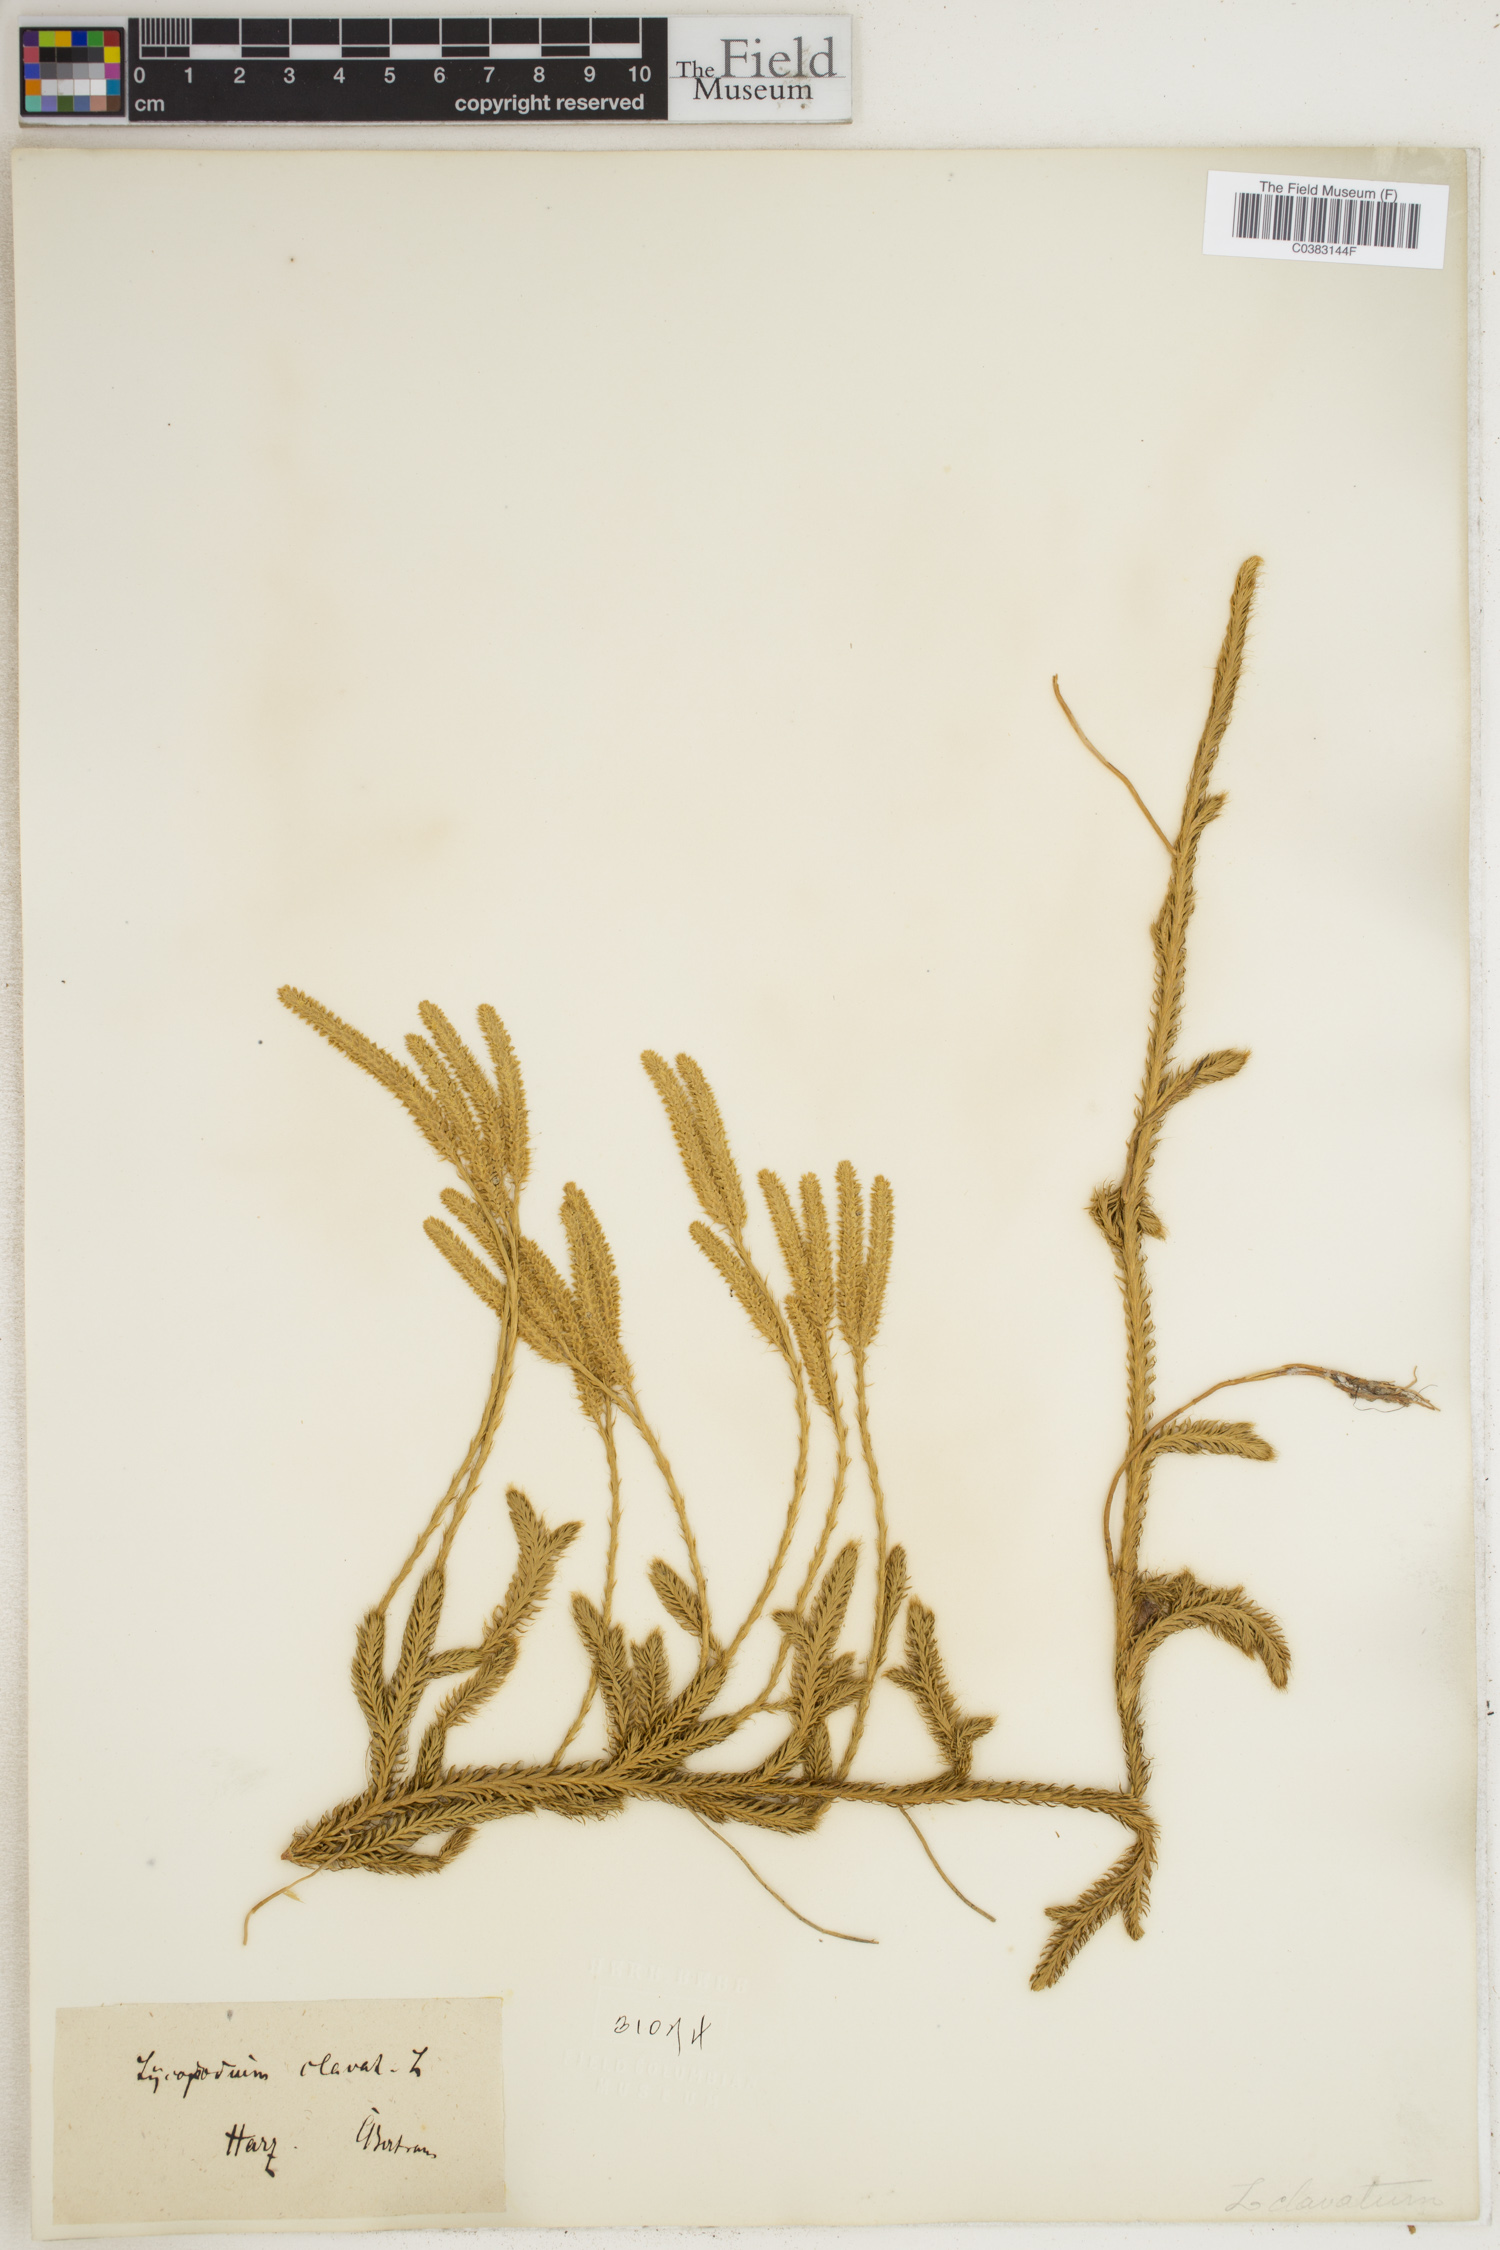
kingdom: Plantae
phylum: Tracheophyta
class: Lycopodiopsida
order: Lycopodiales
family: Lycopodiaceae
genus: Lycopodium
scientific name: Lycopodium clavatum
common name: Stag's-horn clubmoss
